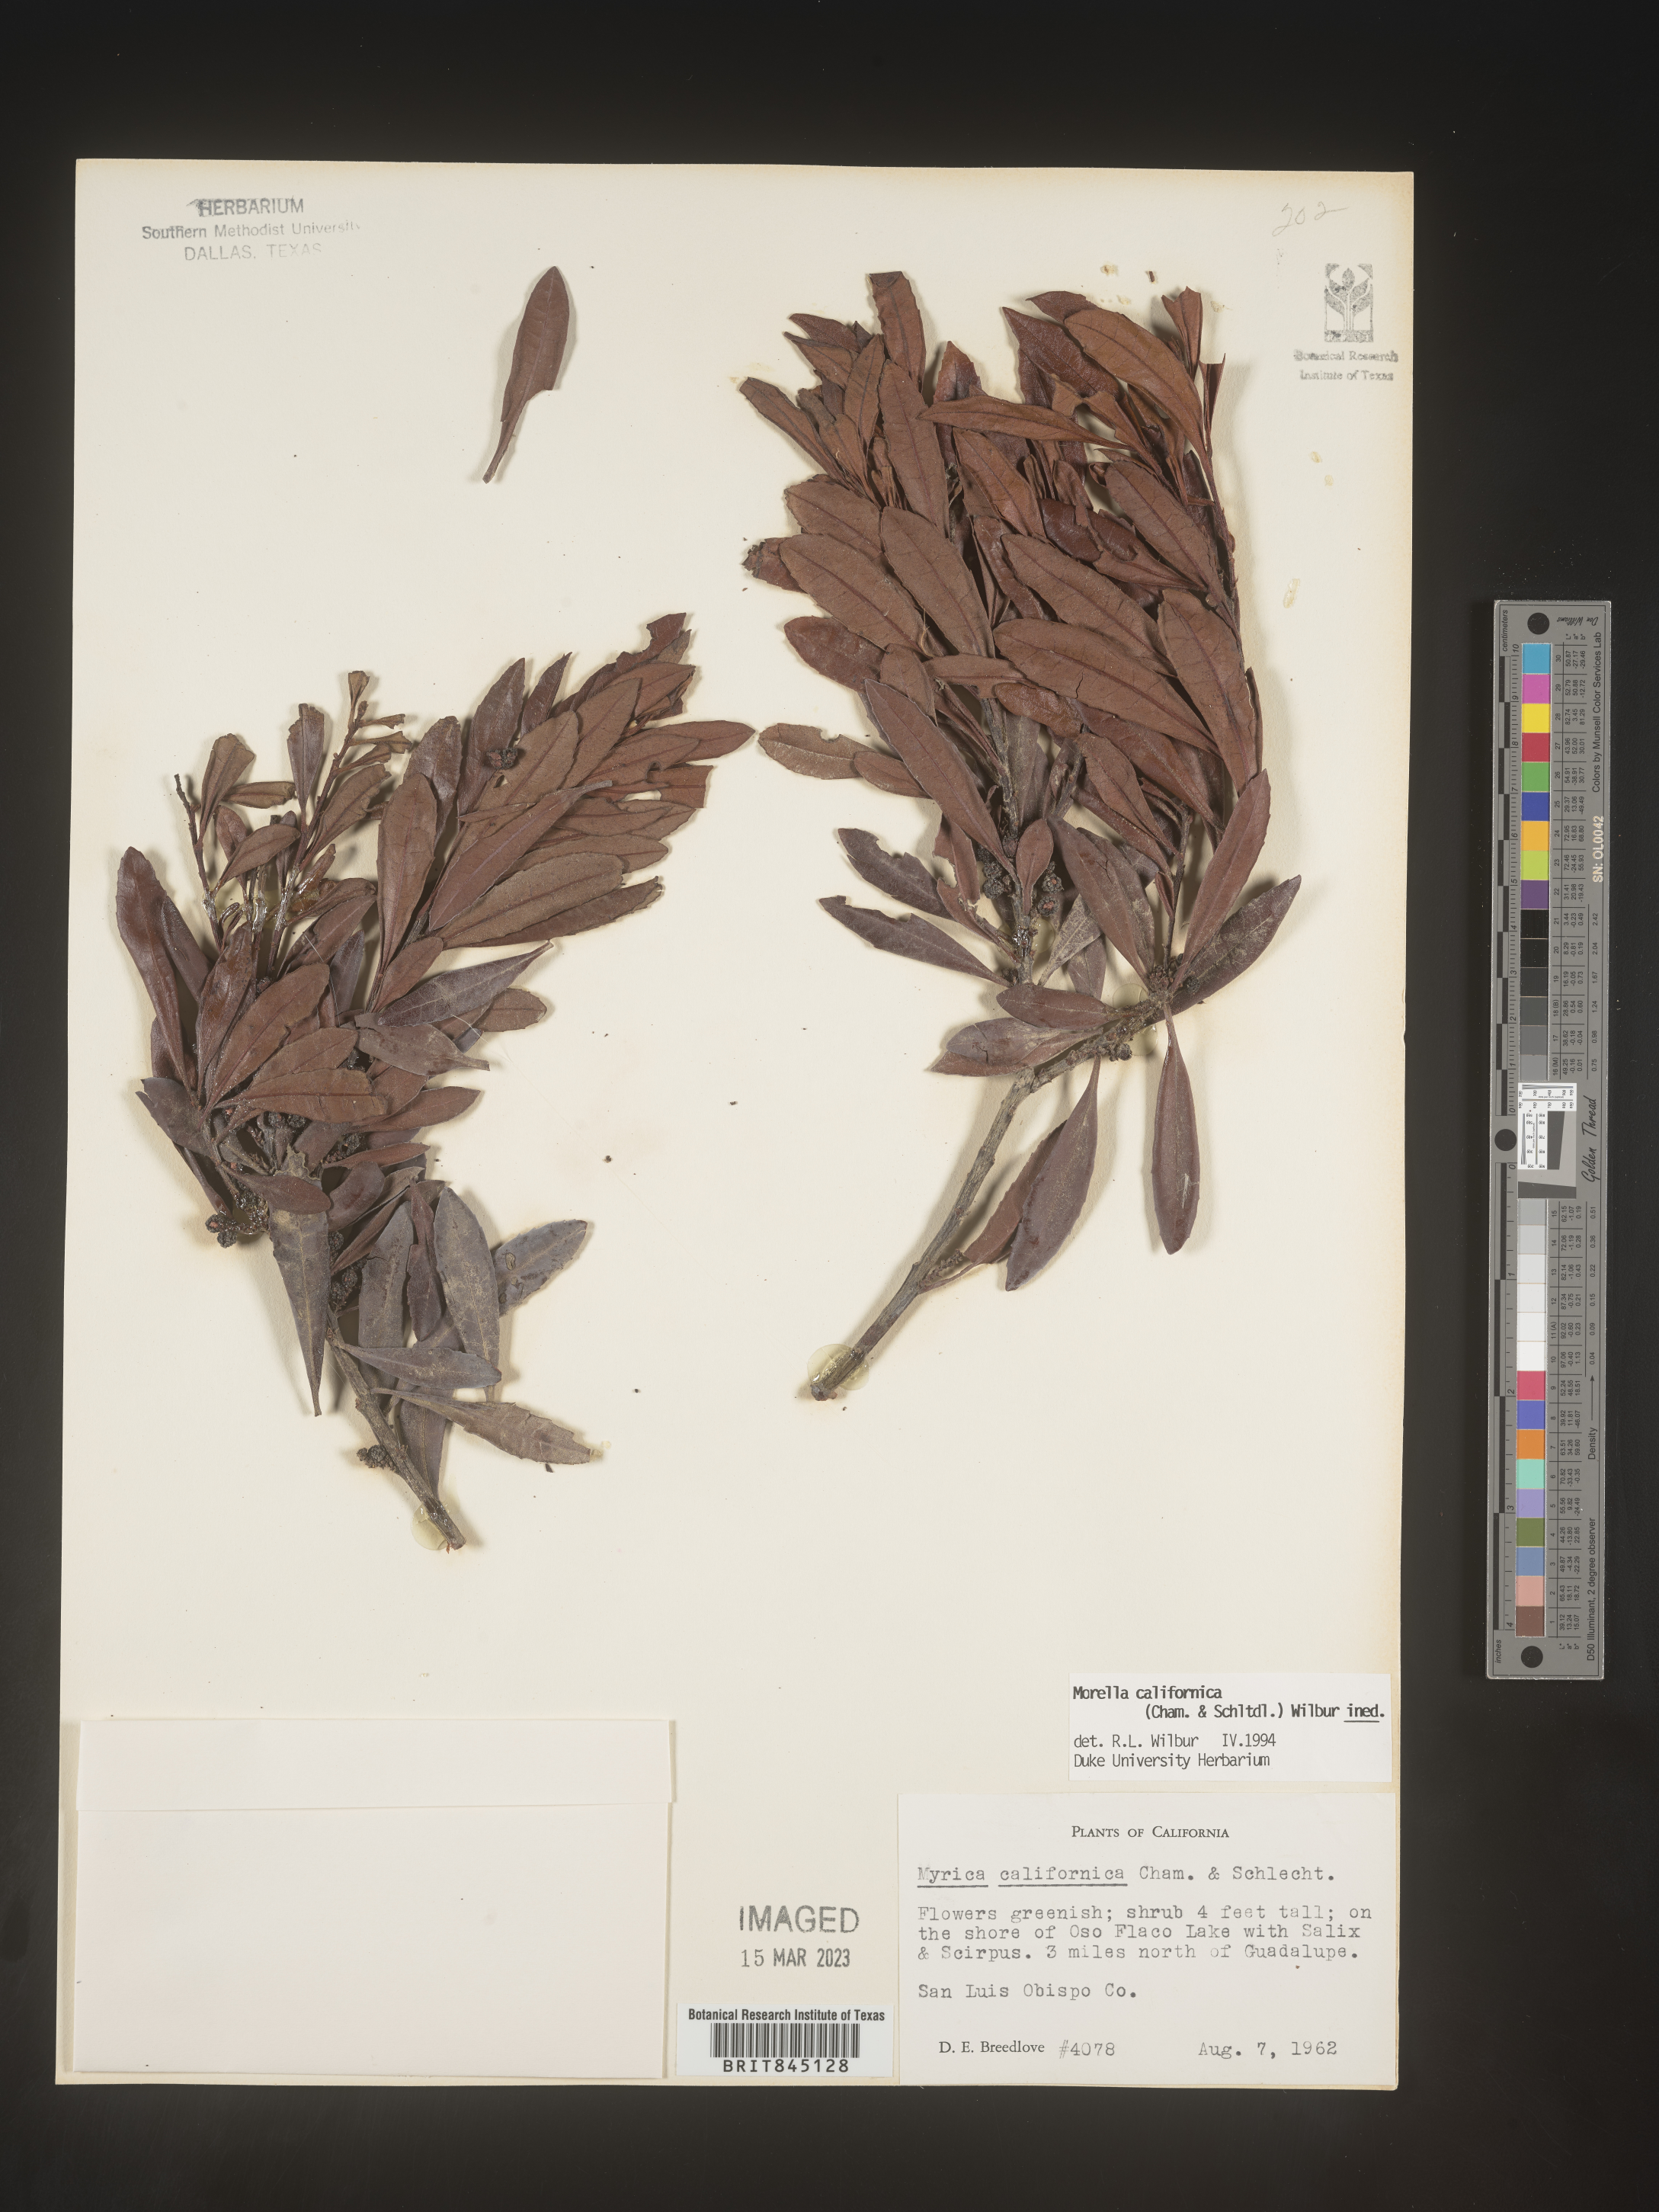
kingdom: Plantae
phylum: Tracheophyta
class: Magnoliopsida
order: Fagales
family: Myricaceae
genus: Morella
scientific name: Morella californica
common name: California wax-myrtle
